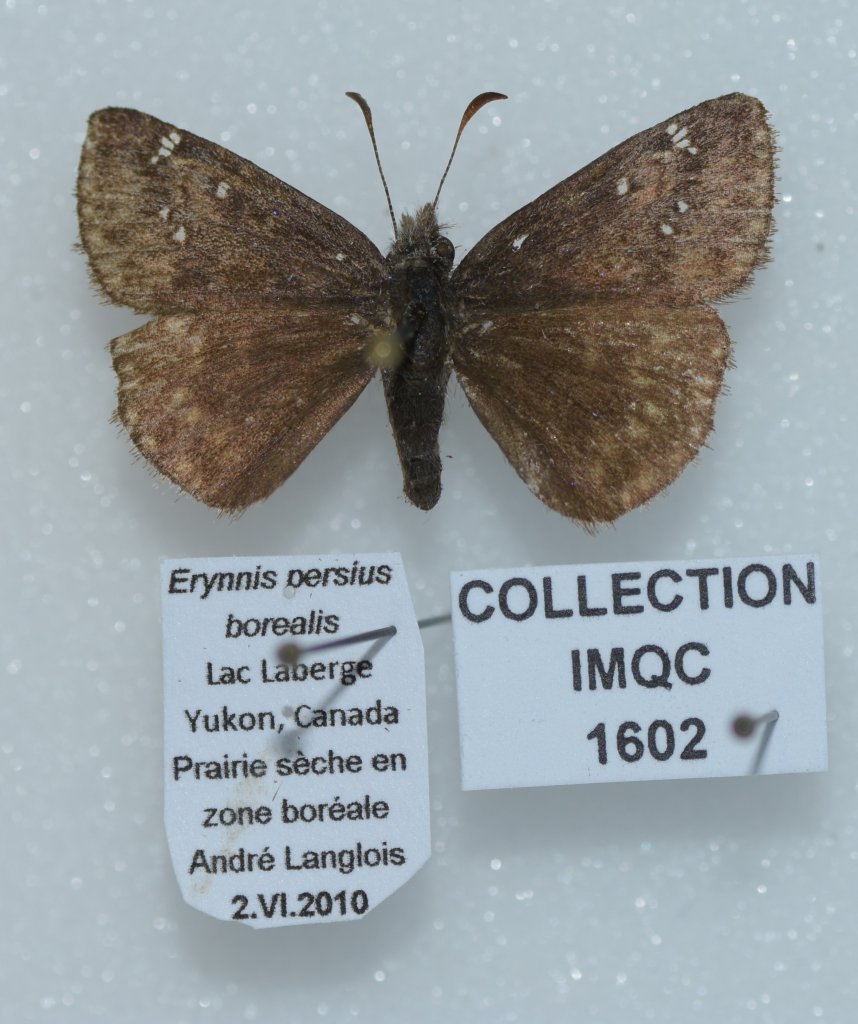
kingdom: Animalia
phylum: Arthropoda
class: Insecta
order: Lepidoptera
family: Hesperiidae
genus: Gesta
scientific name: Gesta
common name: Persius Duskywing
